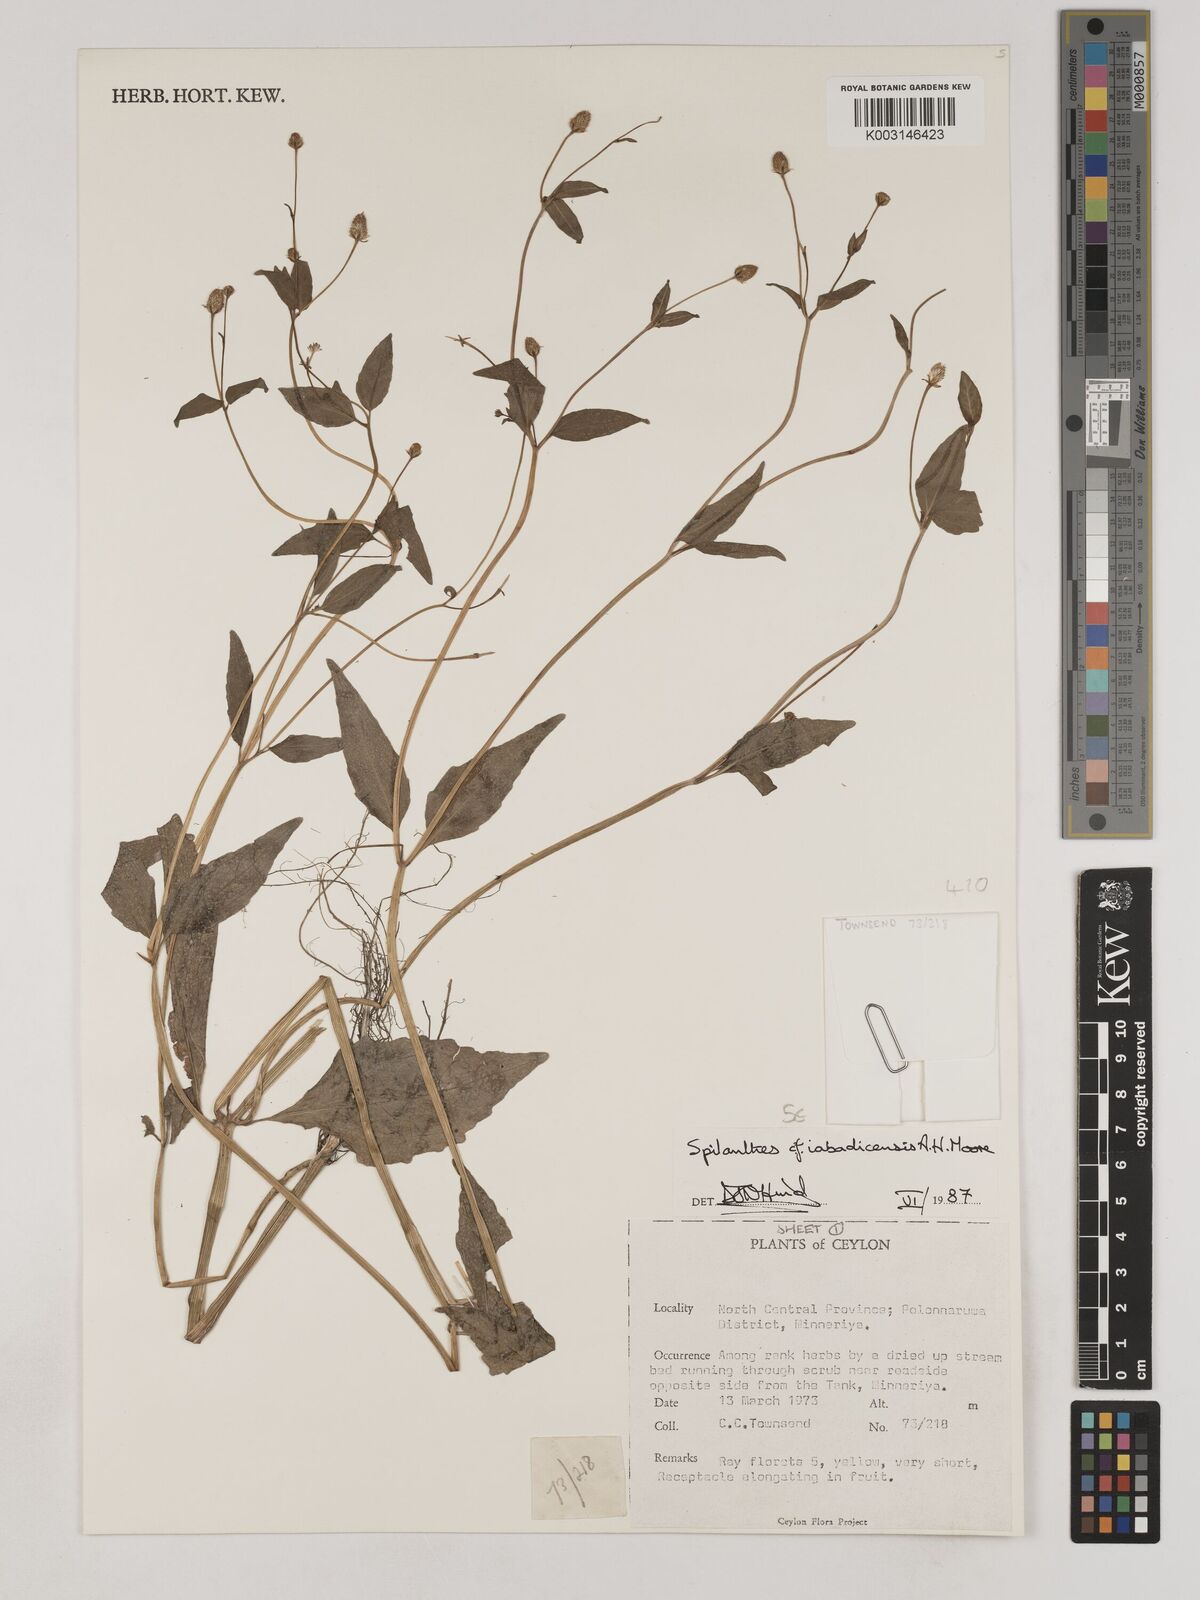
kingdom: Plantae
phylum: Tracheophyta
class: Magnoliopsida
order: Asterales
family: Asteraceae
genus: Acmella
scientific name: Acmella uliginosa
